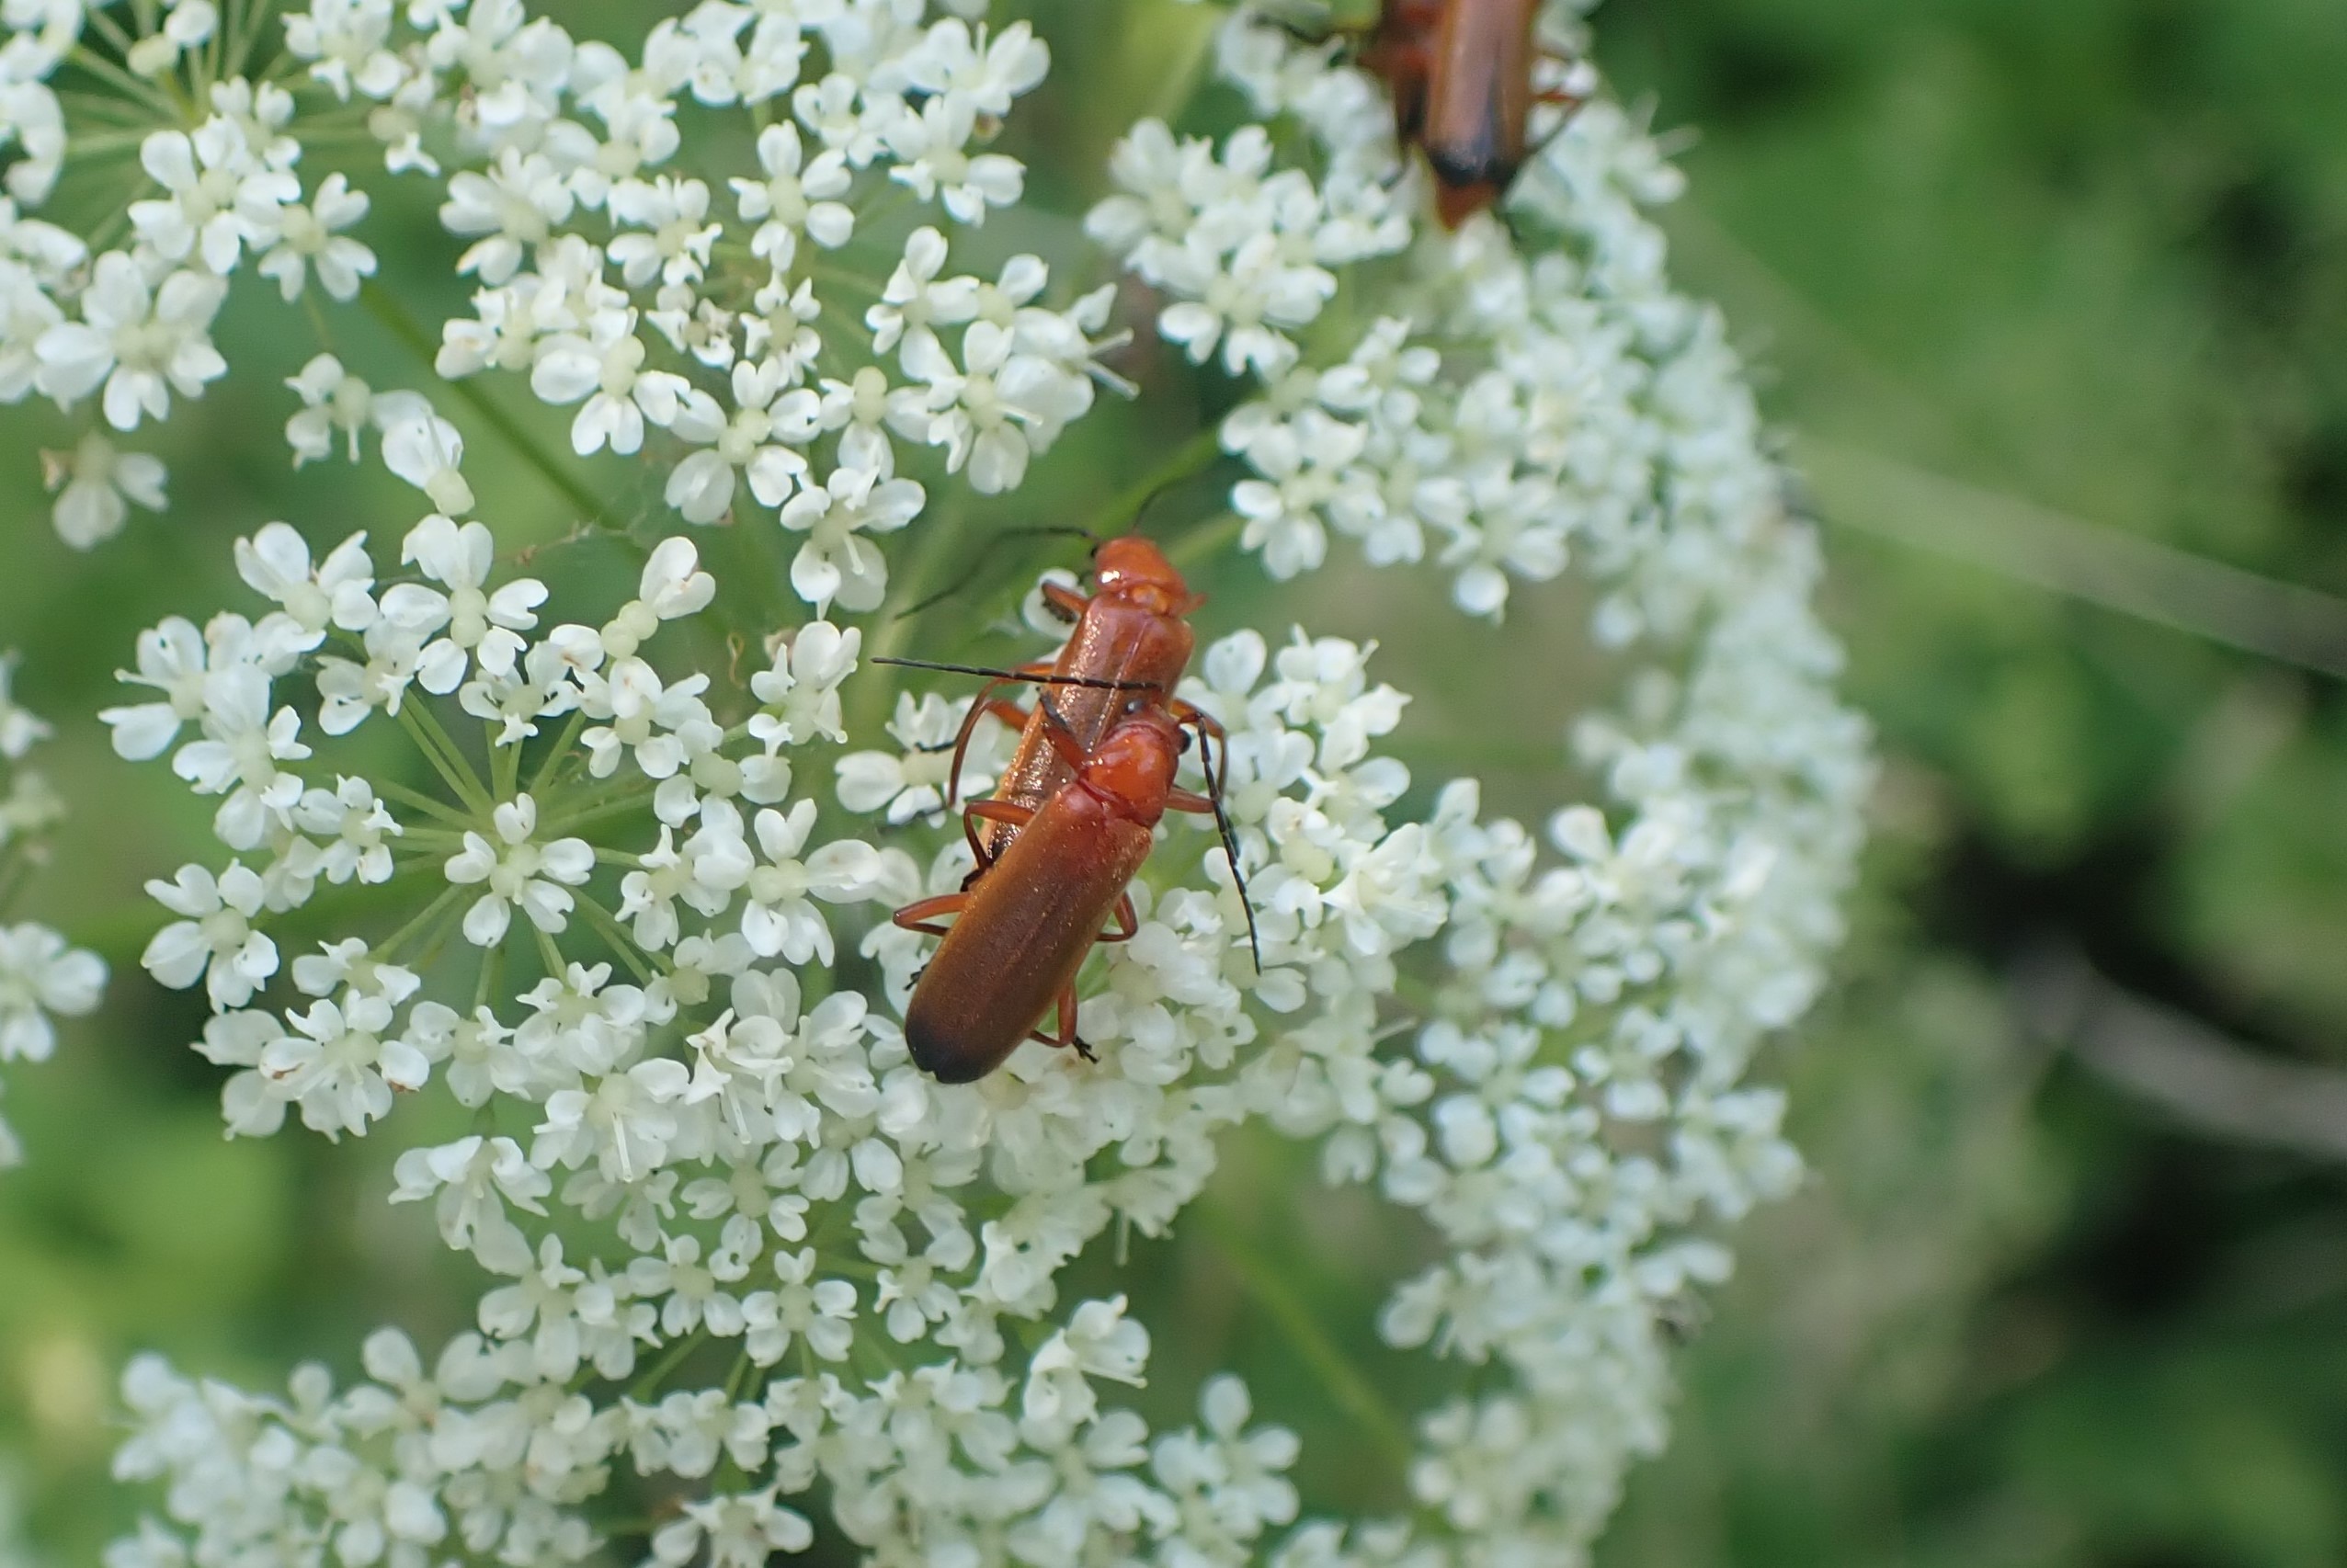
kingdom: Animalia
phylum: Arthropoda
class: Insecta
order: Coleoptera
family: Cantharidae
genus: Rhagonycha
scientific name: Rhagonycha fulva
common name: Præstebille
